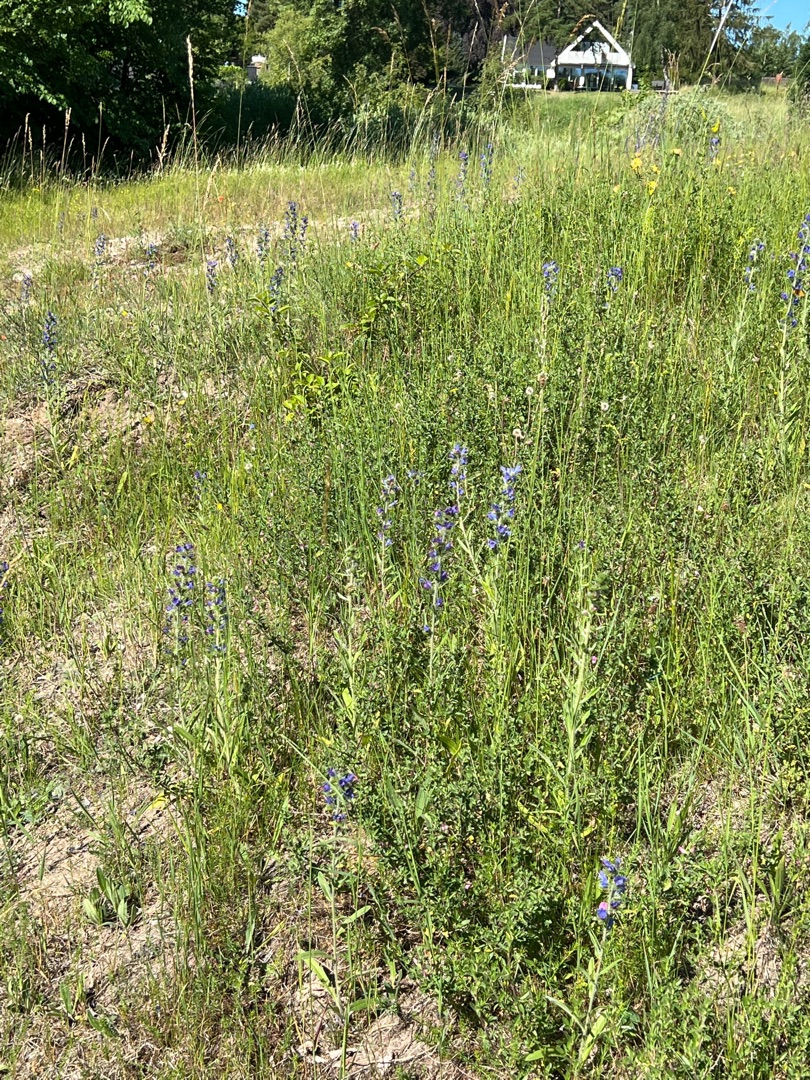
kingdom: Plantae
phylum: Tracheophyta
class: Magnoliopsida
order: Boraginales
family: Boraginaceae
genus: Echium
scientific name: Echium vulgare
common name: Slangehoved
